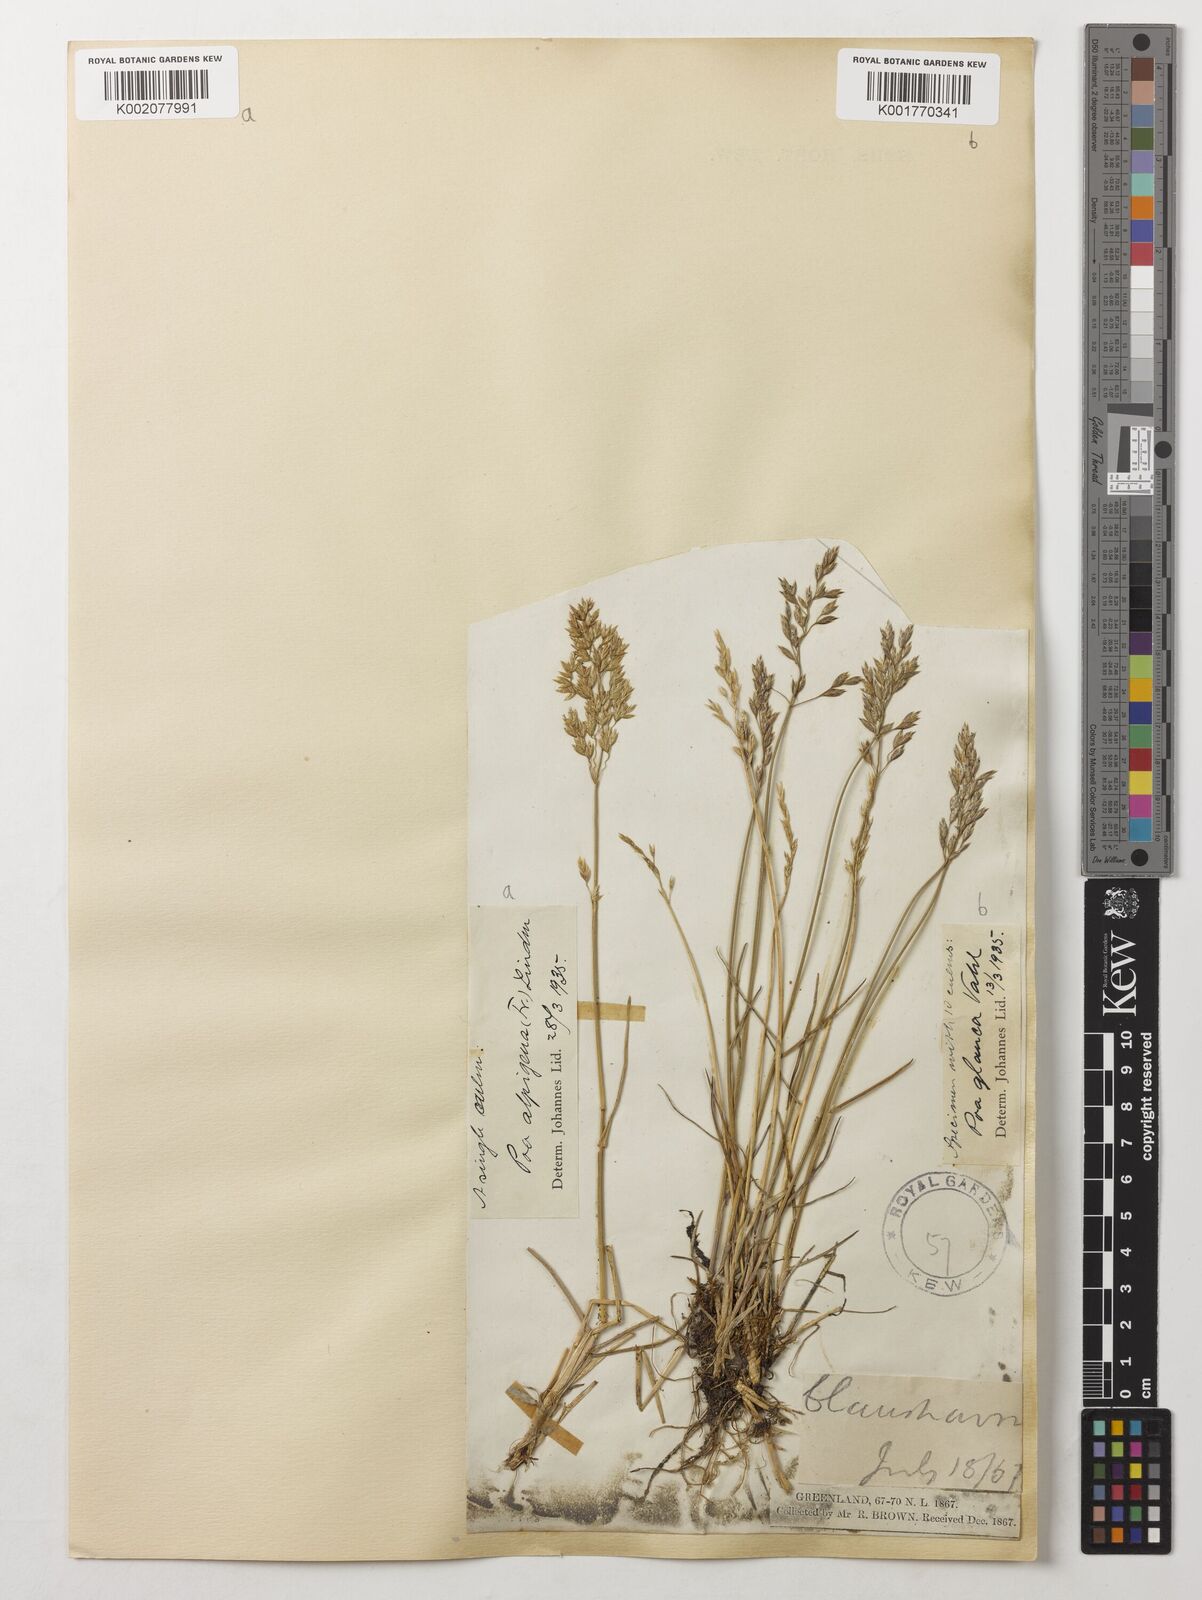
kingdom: Plantae
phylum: Tracheophyta
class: Liliopsida
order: Poales
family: Poaceae
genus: Poa
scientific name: Poa glauca
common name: Glaucous bluegrass
